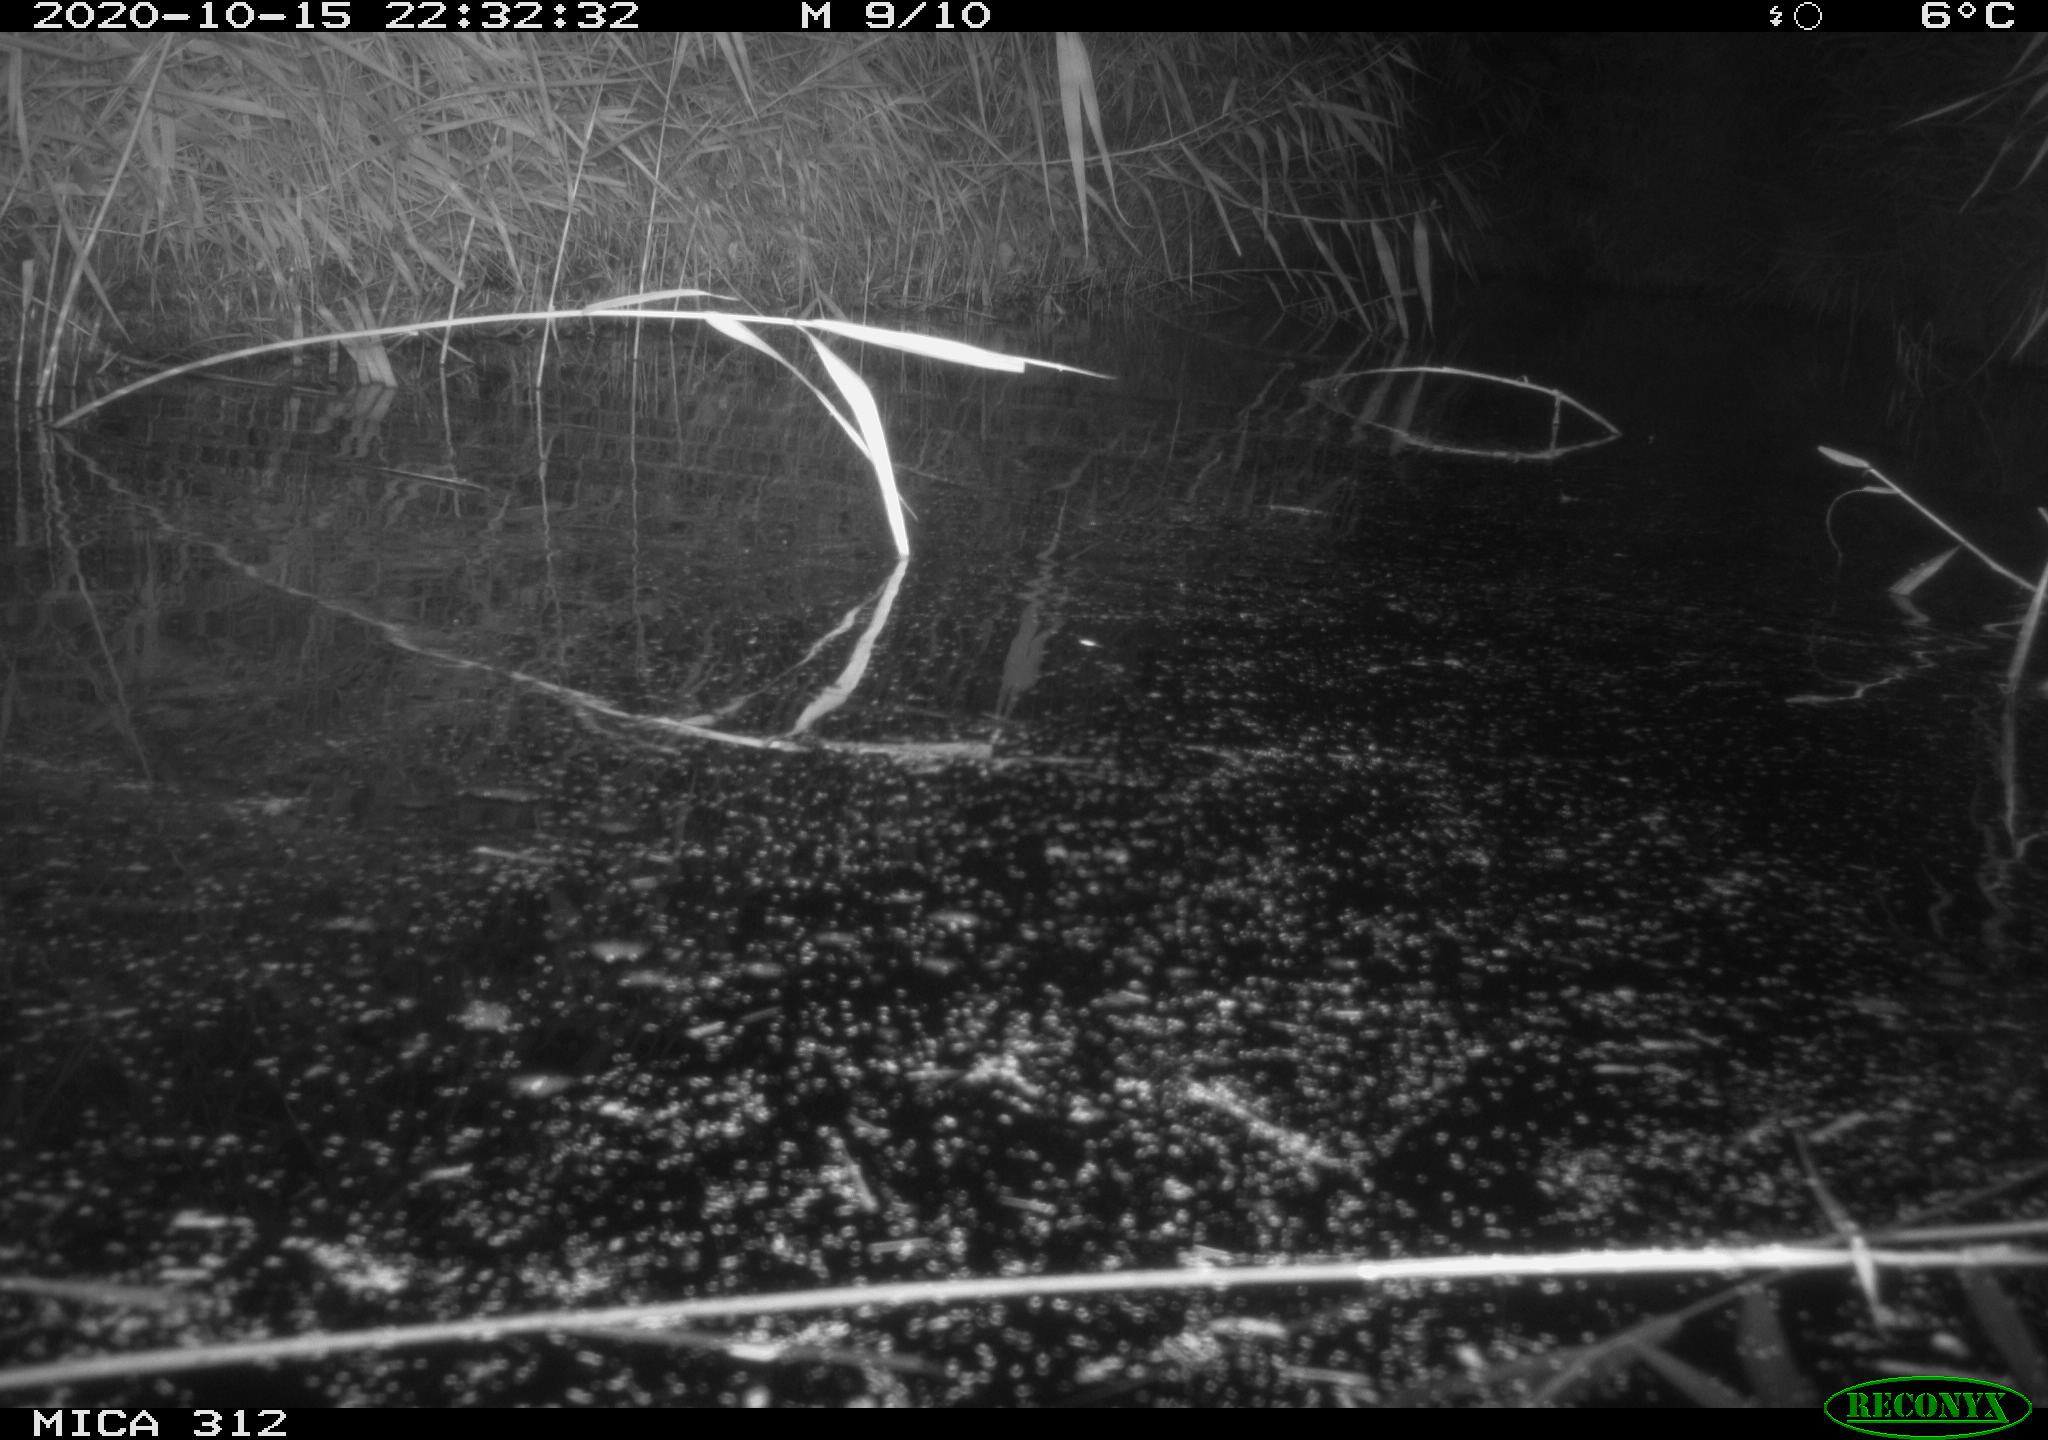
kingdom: Animalia
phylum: Chordata
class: Mammalia
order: Rodentia
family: Muridae
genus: Rattus
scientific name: Rattus norvegicus
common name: Brown rat
